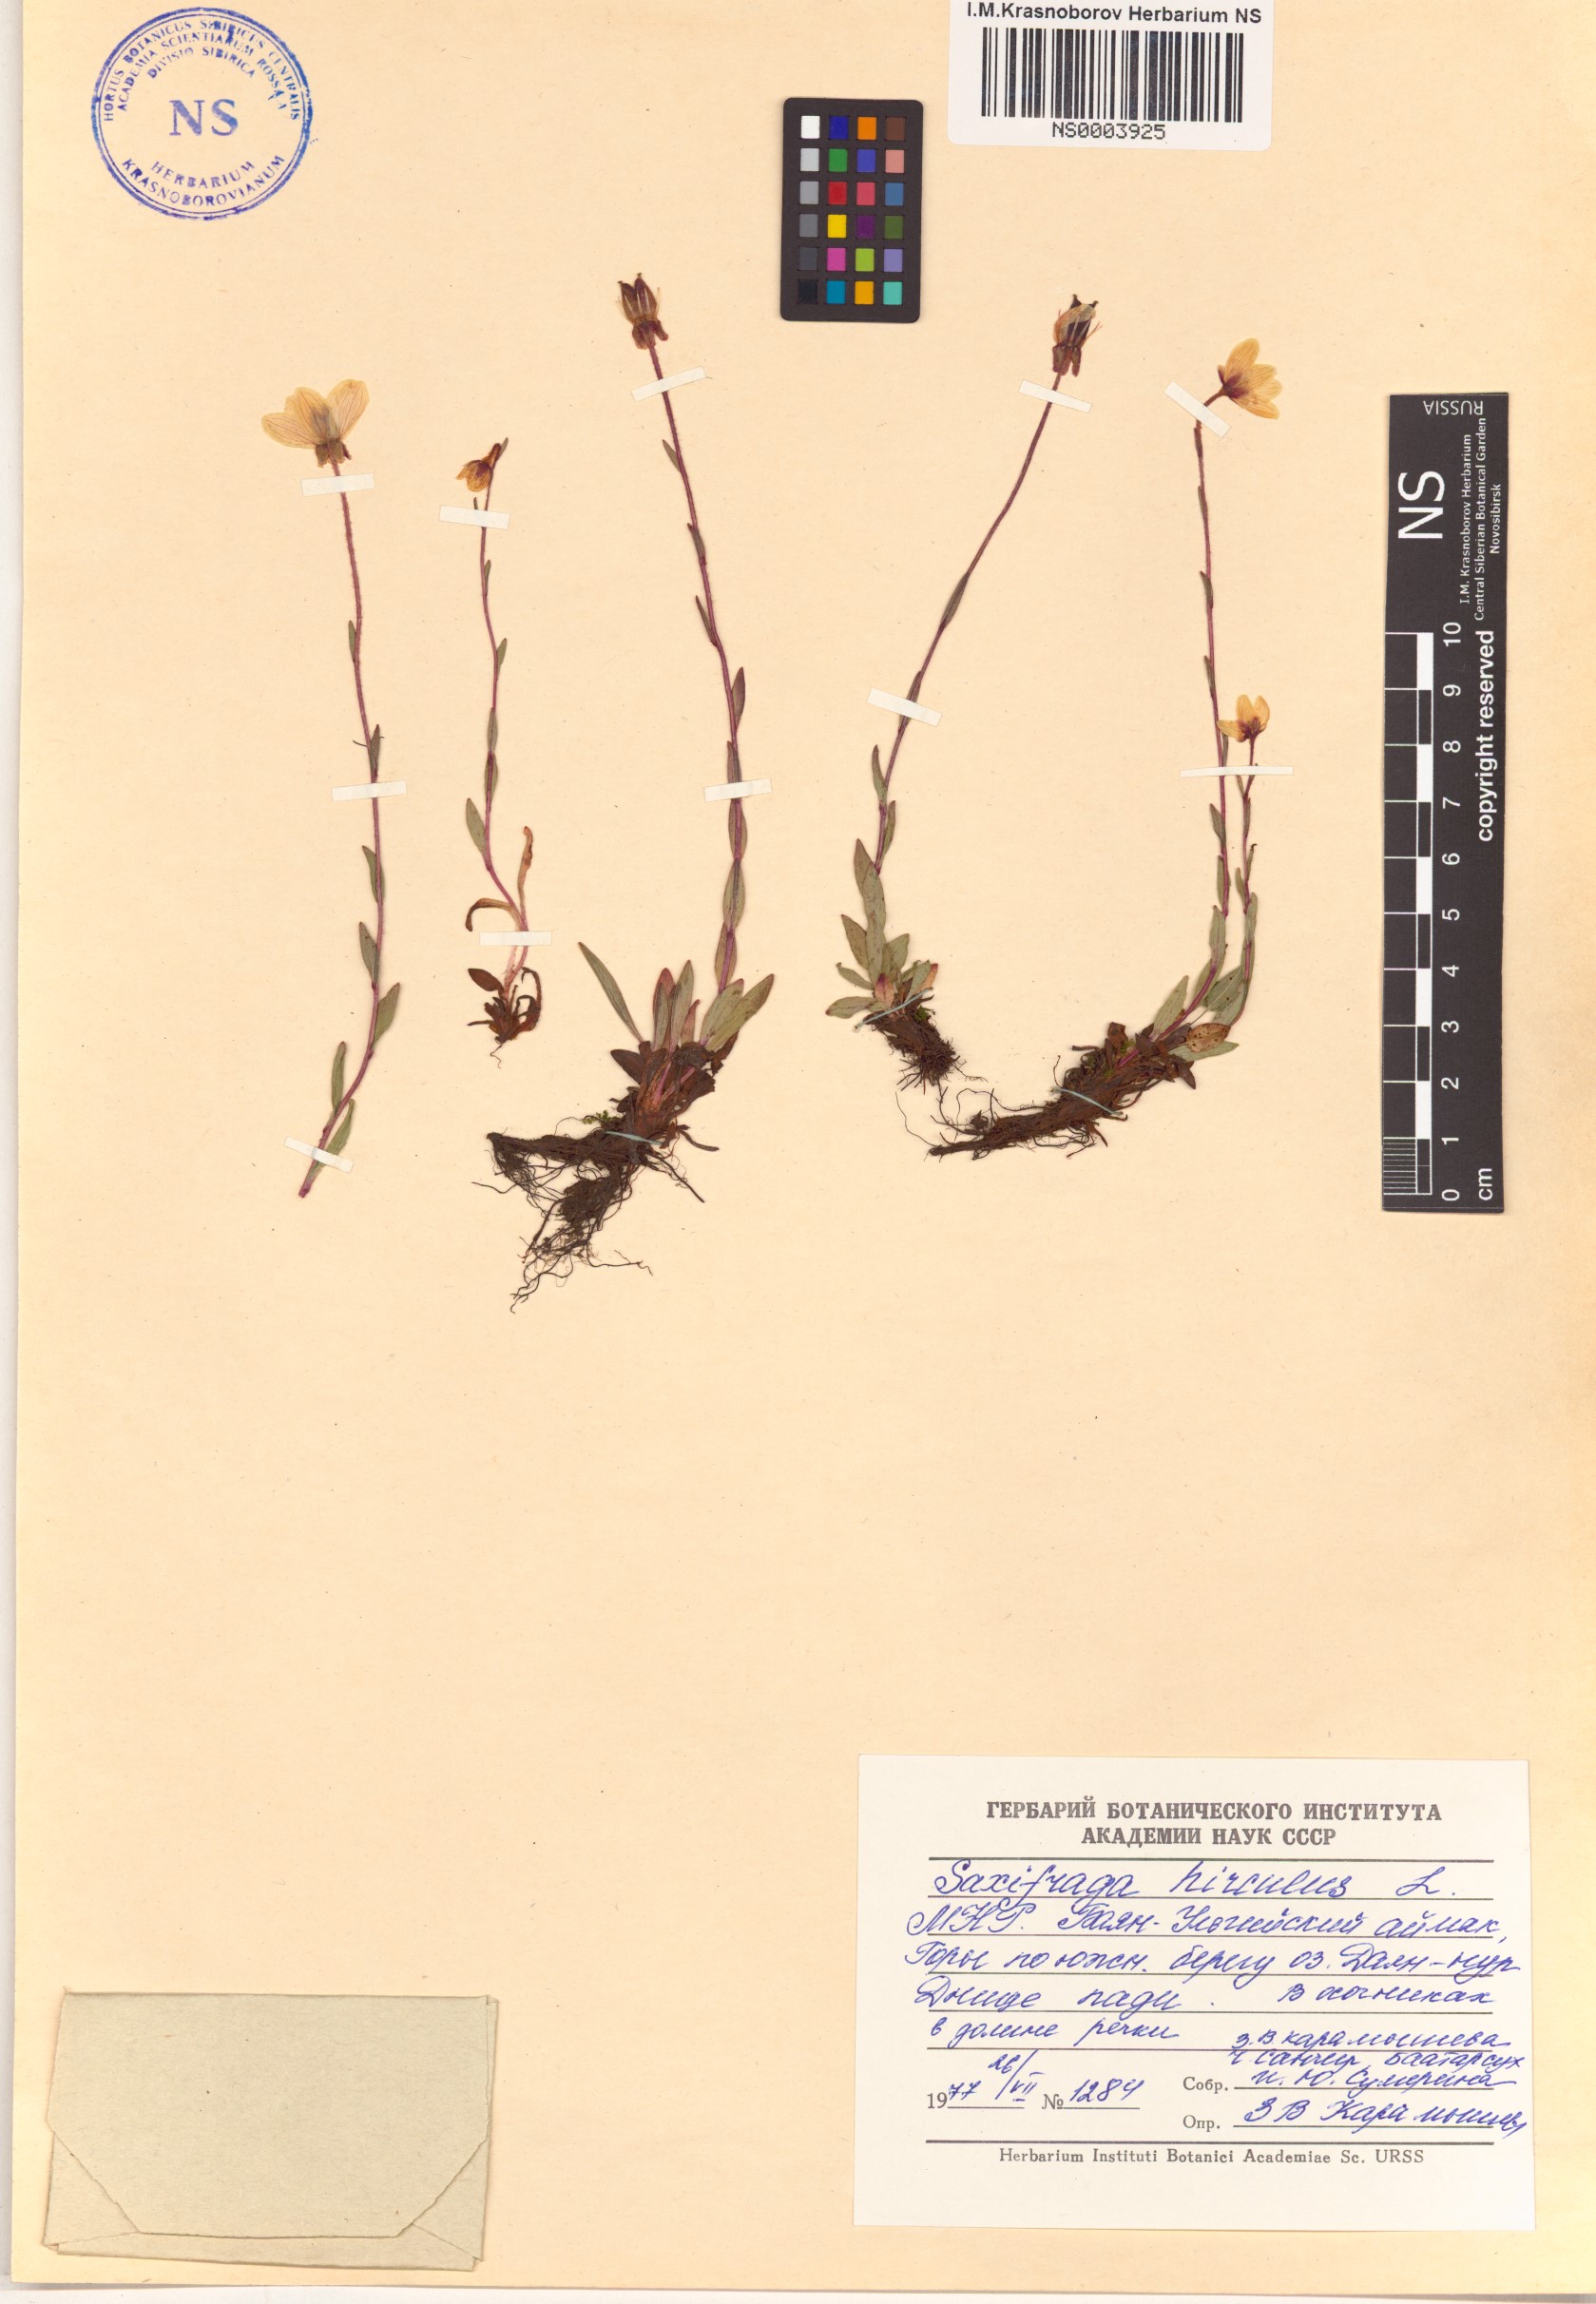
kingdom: Plantae
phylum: Tracheophyta
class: Magnoliopsida
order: Saxifragales
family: Saxifragaceae
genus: Saxifraga
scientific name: Saxifraga hirculus
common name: Yellow marsh saxifrage
